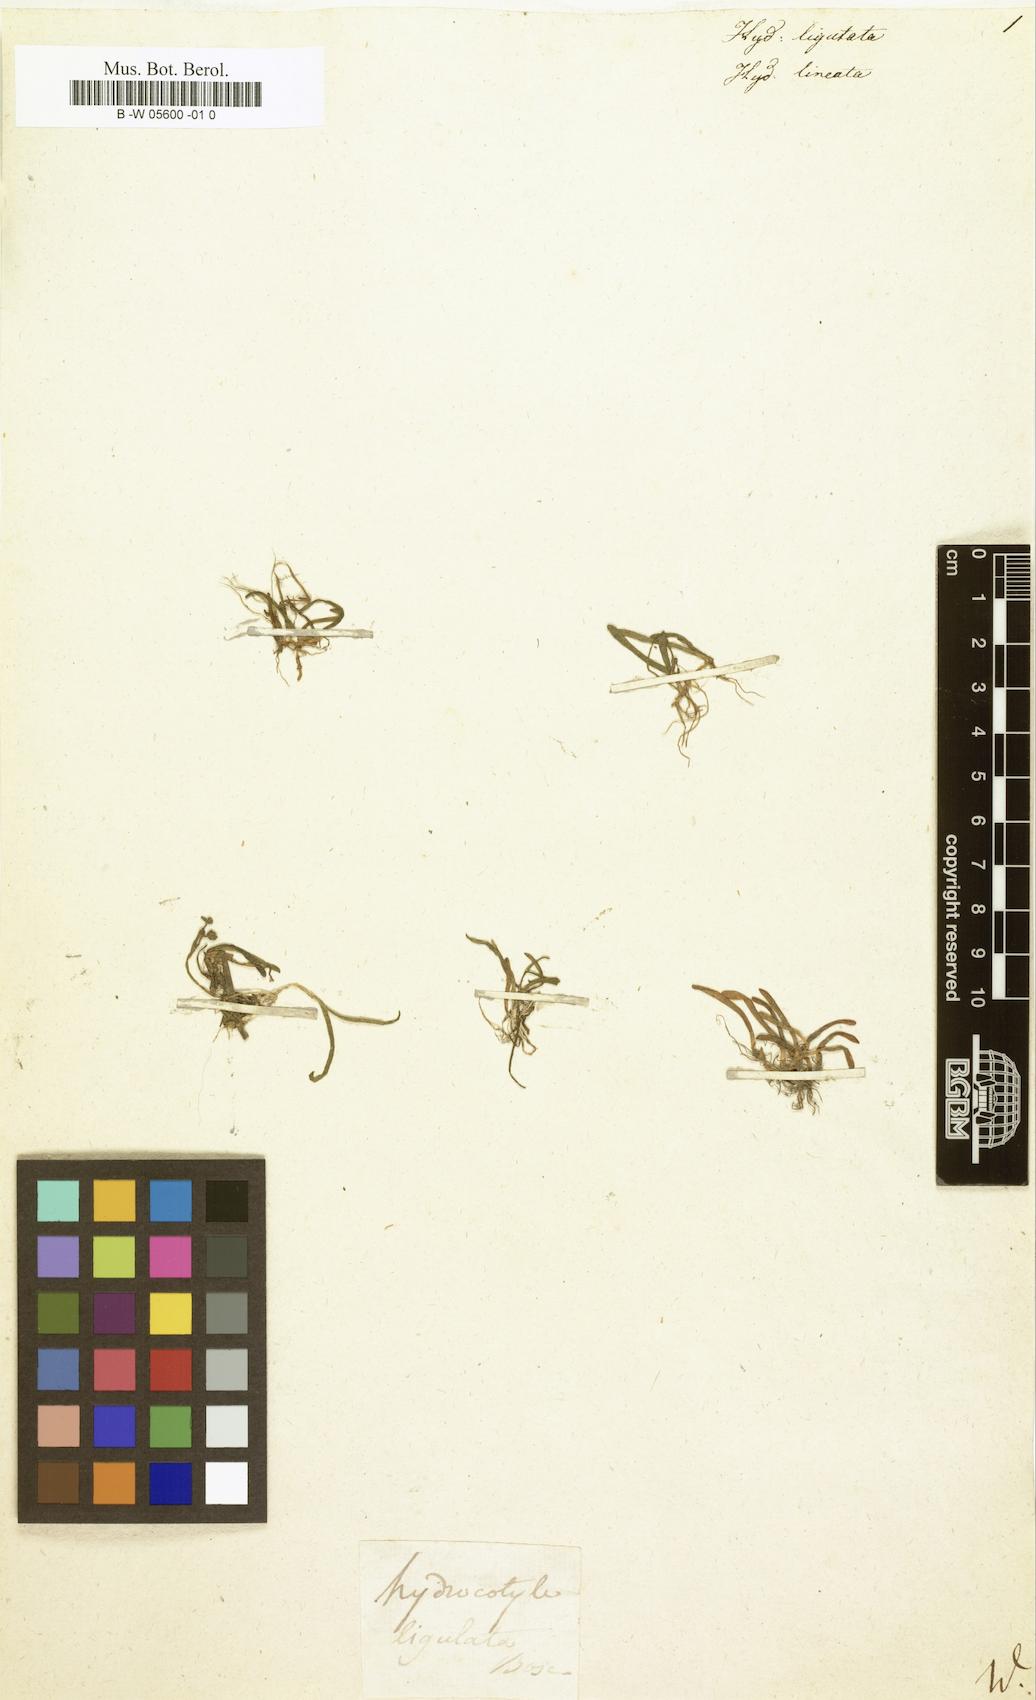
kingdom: Plantae
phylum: Tracheophyta
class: Magnoliopsida
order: Apiales
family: Apiaceae
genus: Lilaeopsis
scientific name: Lilaeopsis chinensis
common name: Eastern grasswort
